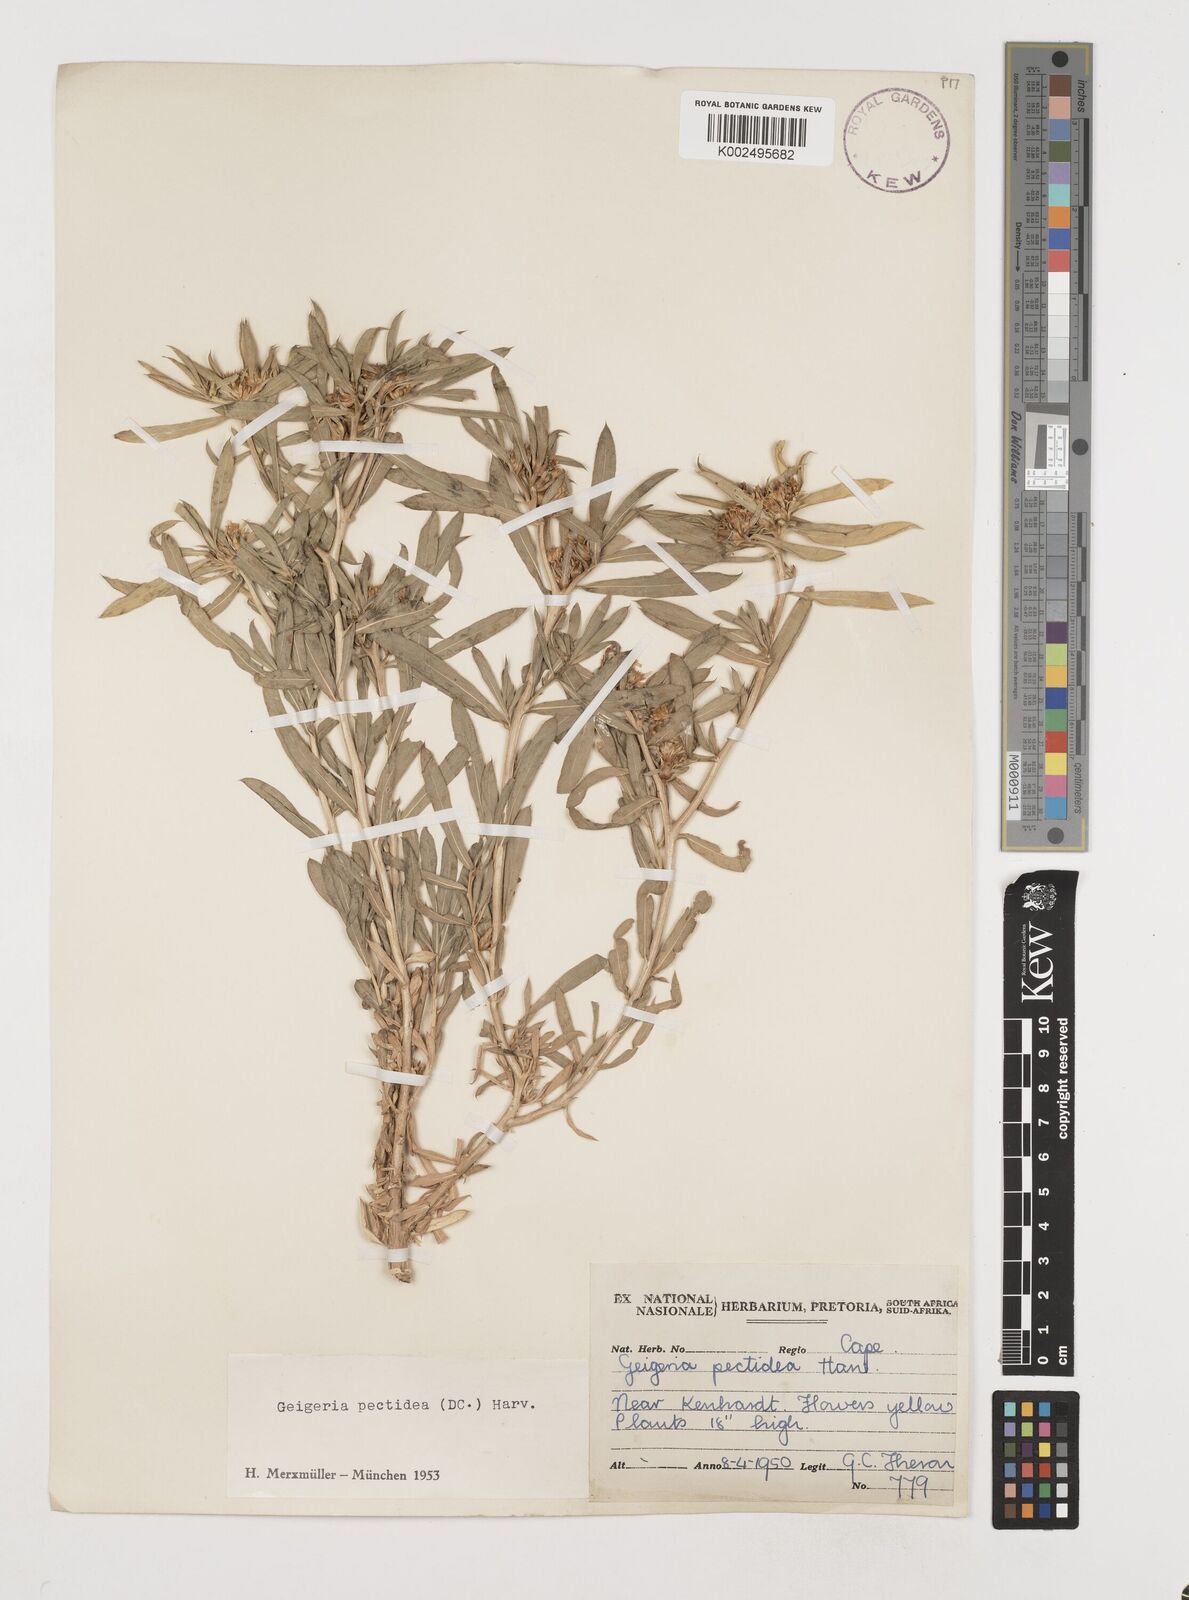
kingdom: Plantae
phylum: Tracheophyta
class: Magnoliopsida
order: Asterales
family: Asteraceae
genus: Geigeria
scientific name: Geigeria pectidea
